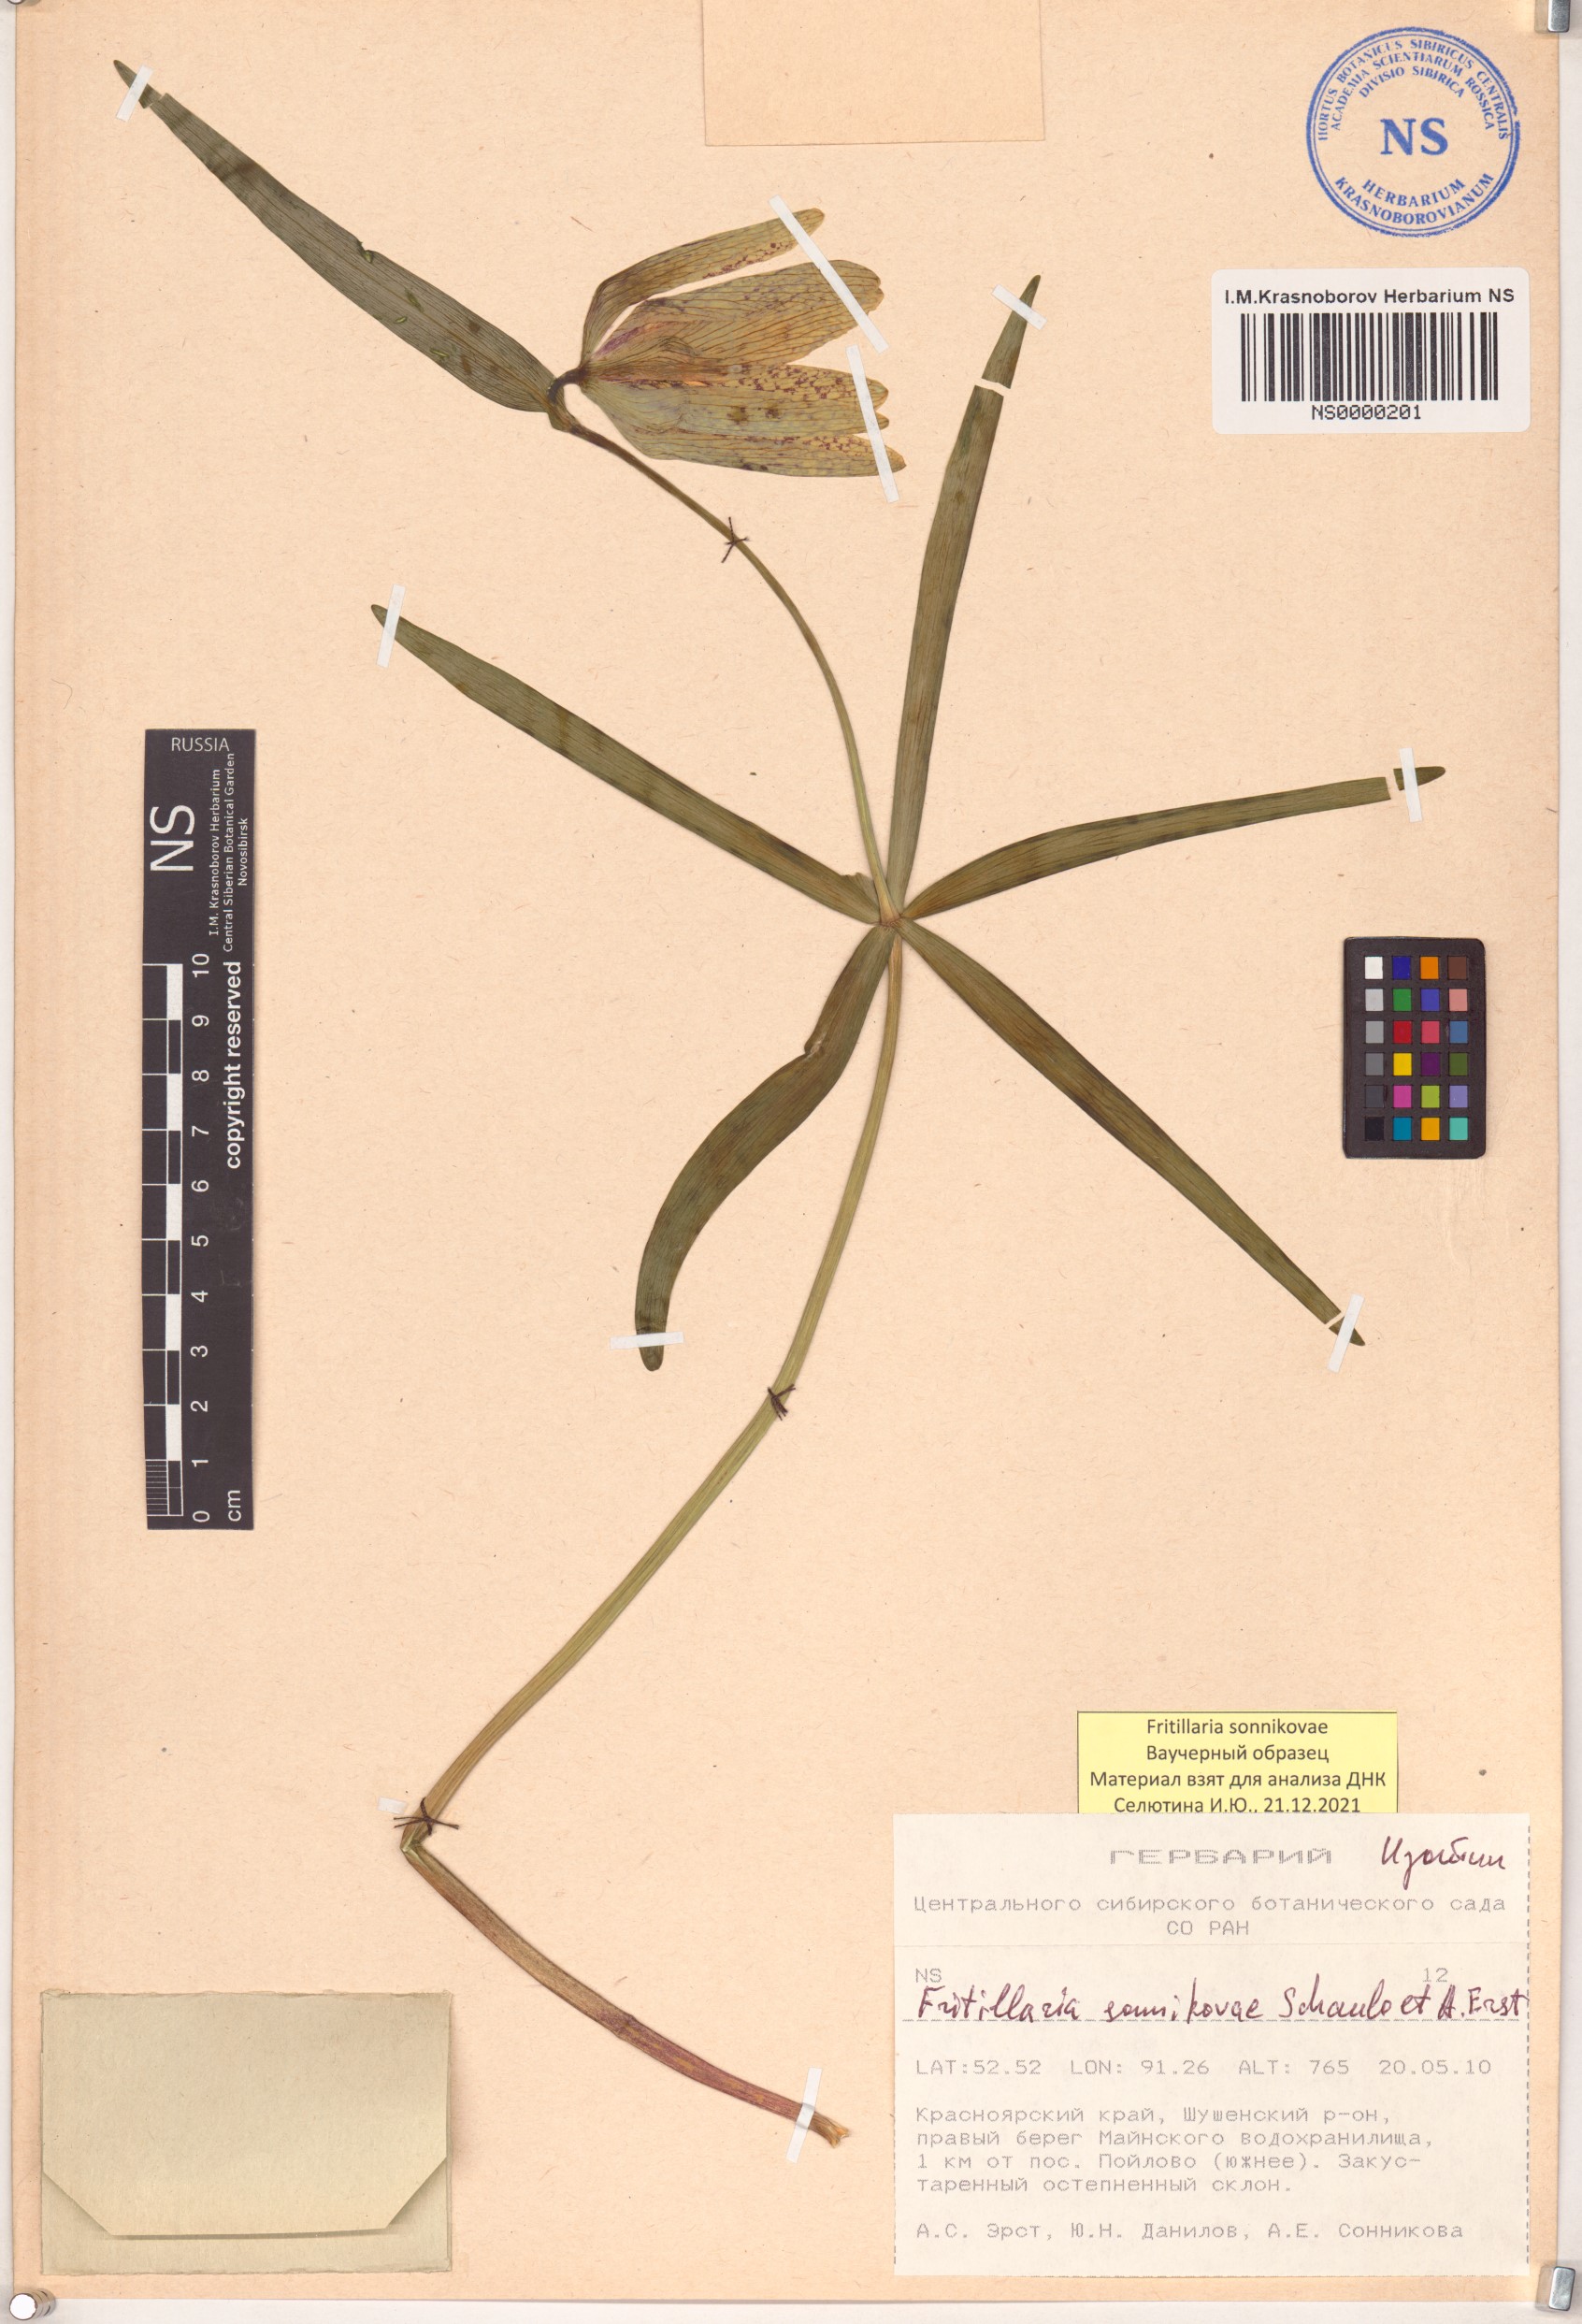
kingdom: Plantae
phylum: Tracheophyta
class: Liliopsida
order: Liliales
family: Liliaceae
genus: Fritillaria
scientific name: Fritillaria sonnikovae
